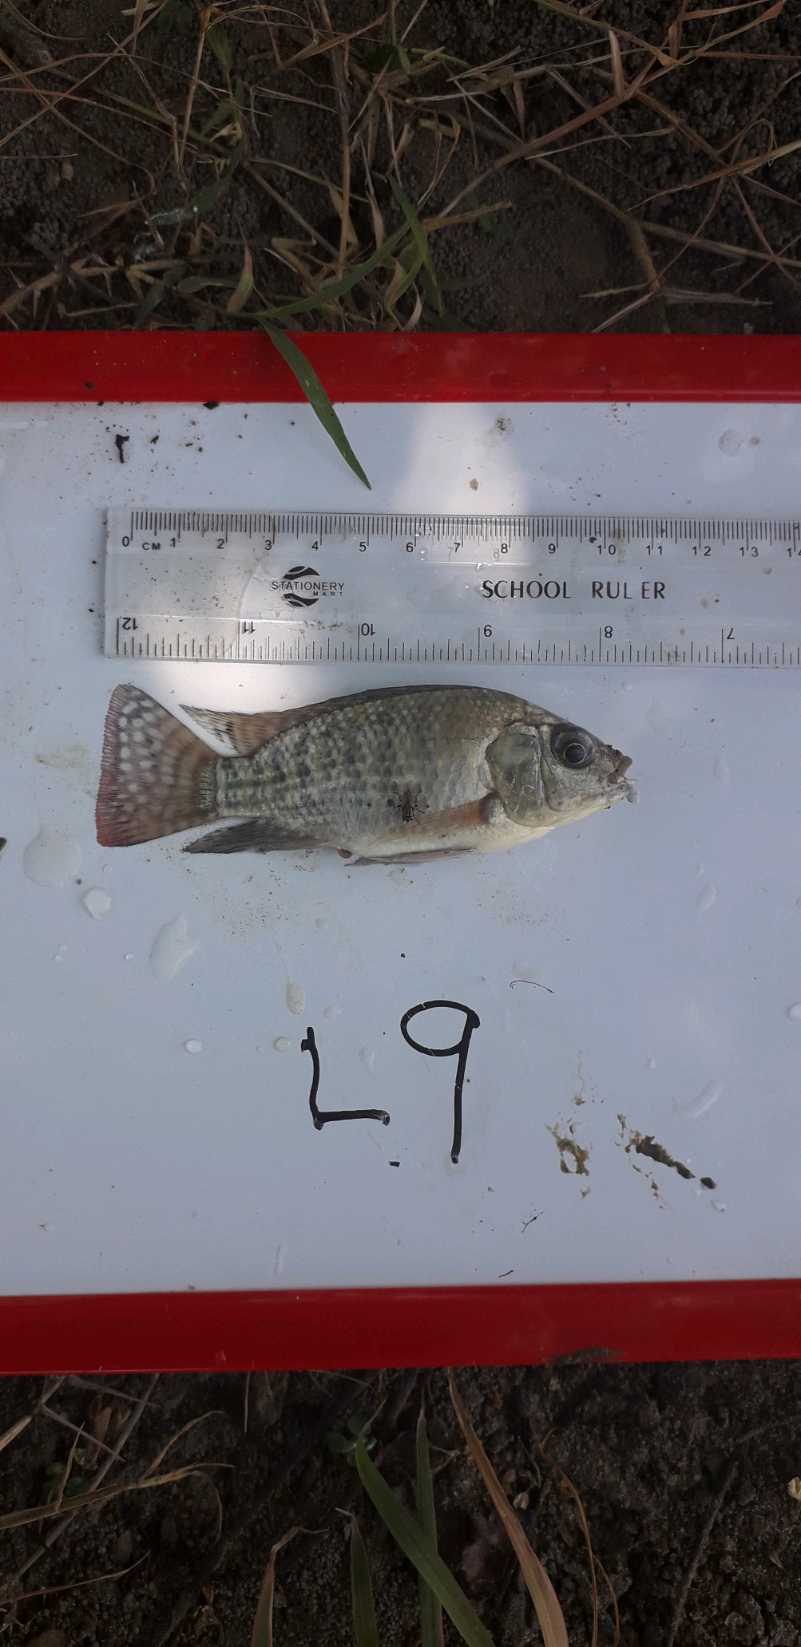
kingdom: Animalia
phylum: Chordata
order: Perciformes
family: Cichlidae
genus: Oreochromis
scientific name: Oreochromis leucostictus
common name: Blue spotted tilapia
